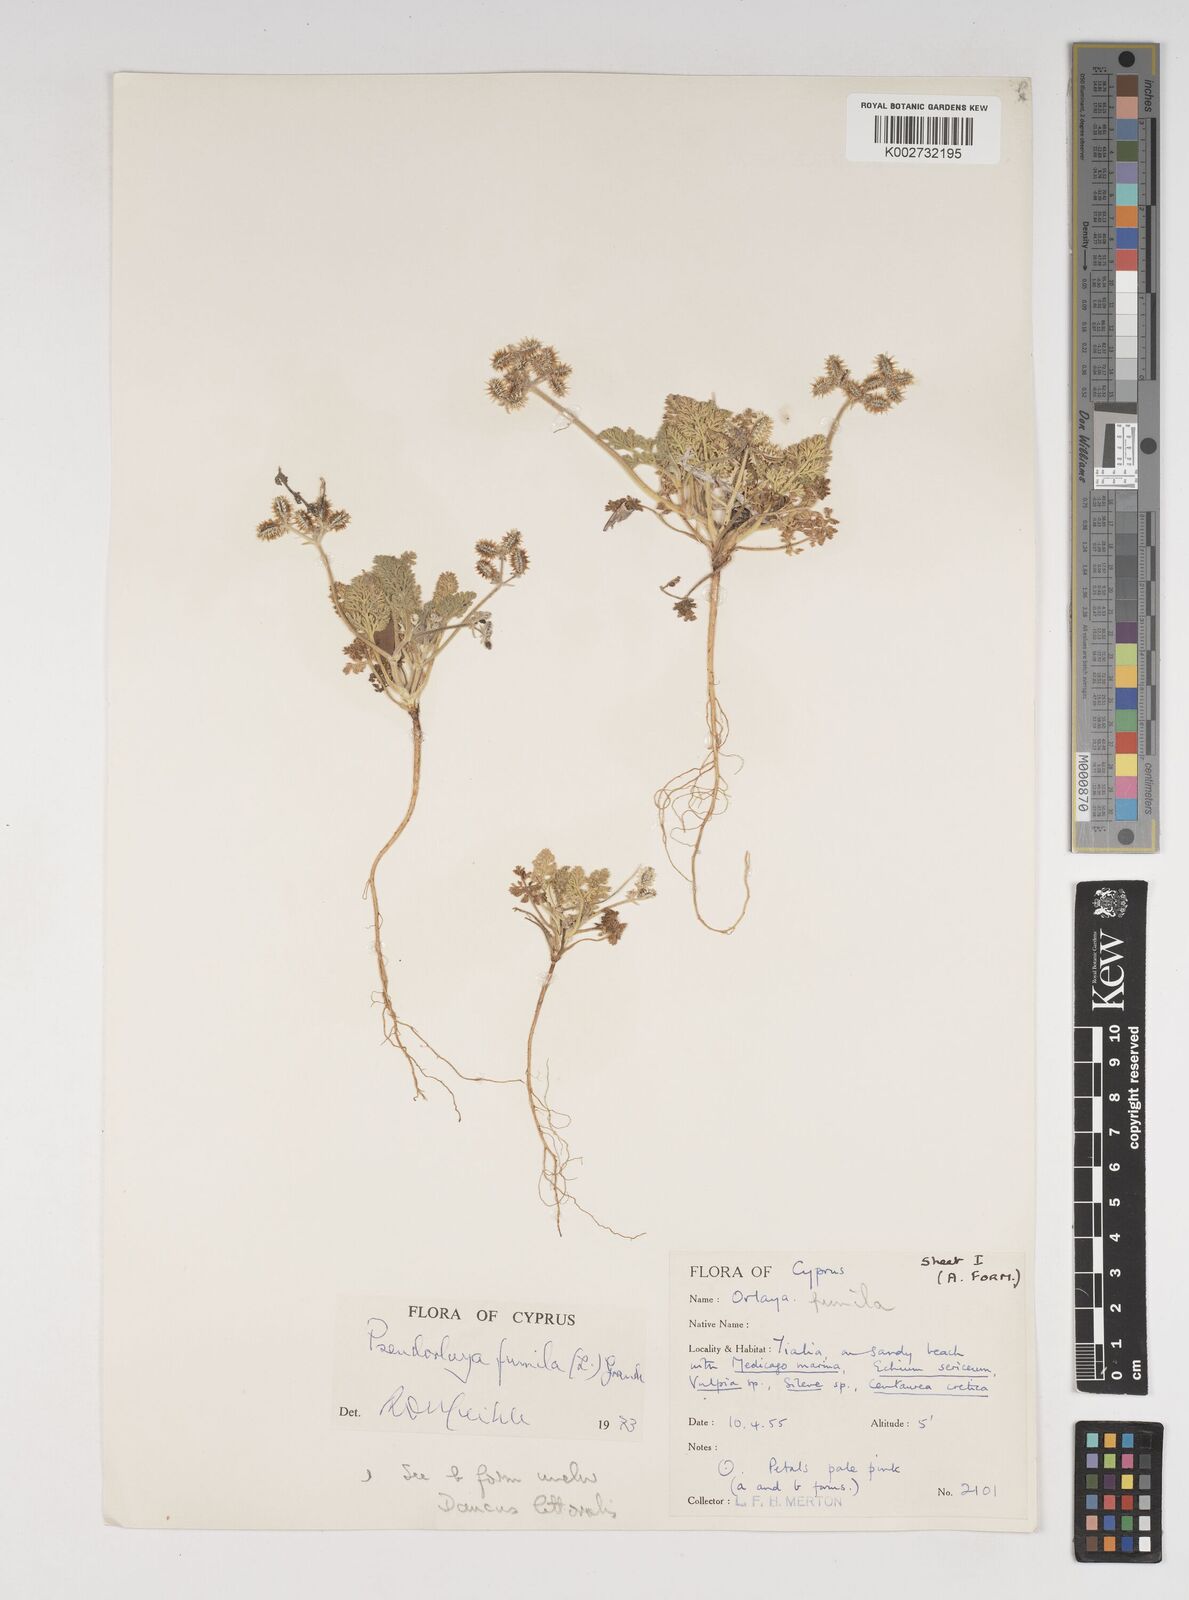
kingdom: Plantae
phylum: Tracheophyta
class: Magnoliopsida
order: Apiales
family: Apiaceae
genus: Daucus
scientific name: Daucus pumilus
